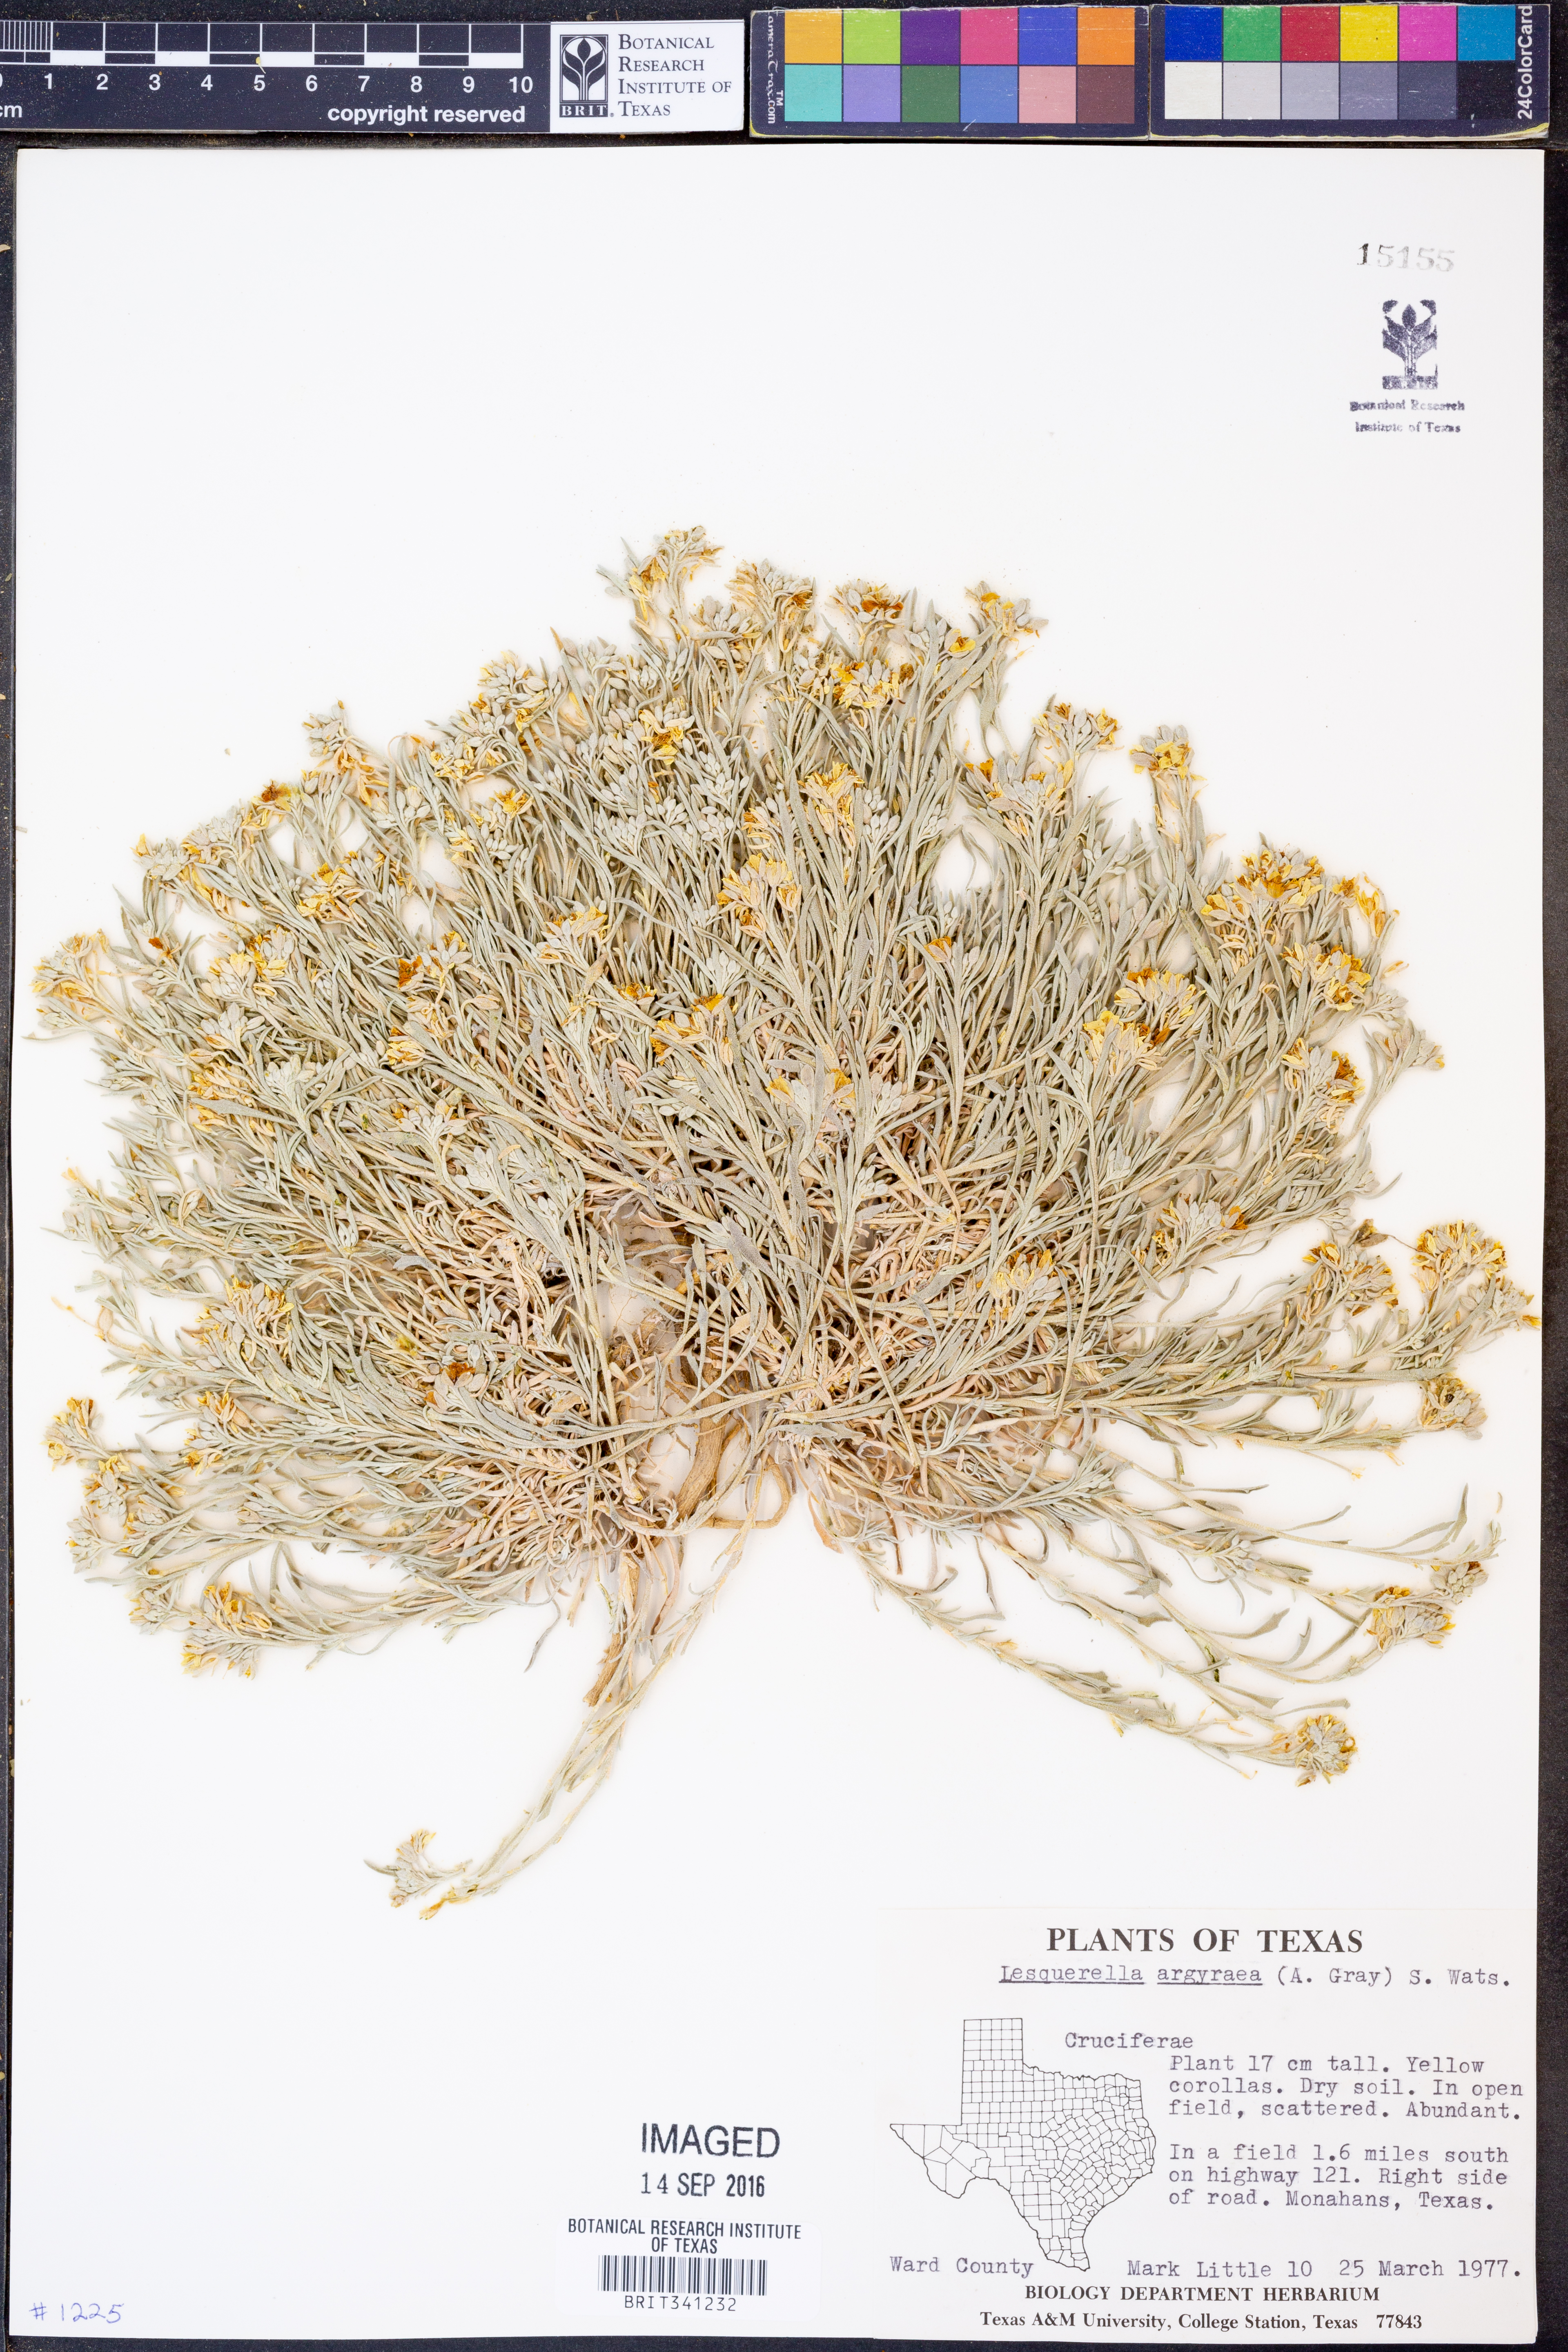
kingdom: Plantae
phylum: Tracheophyta
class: Magnoliopsida
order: Brassicales
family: Brassicaceae
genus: Physaria
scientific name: Physaria argyraea
